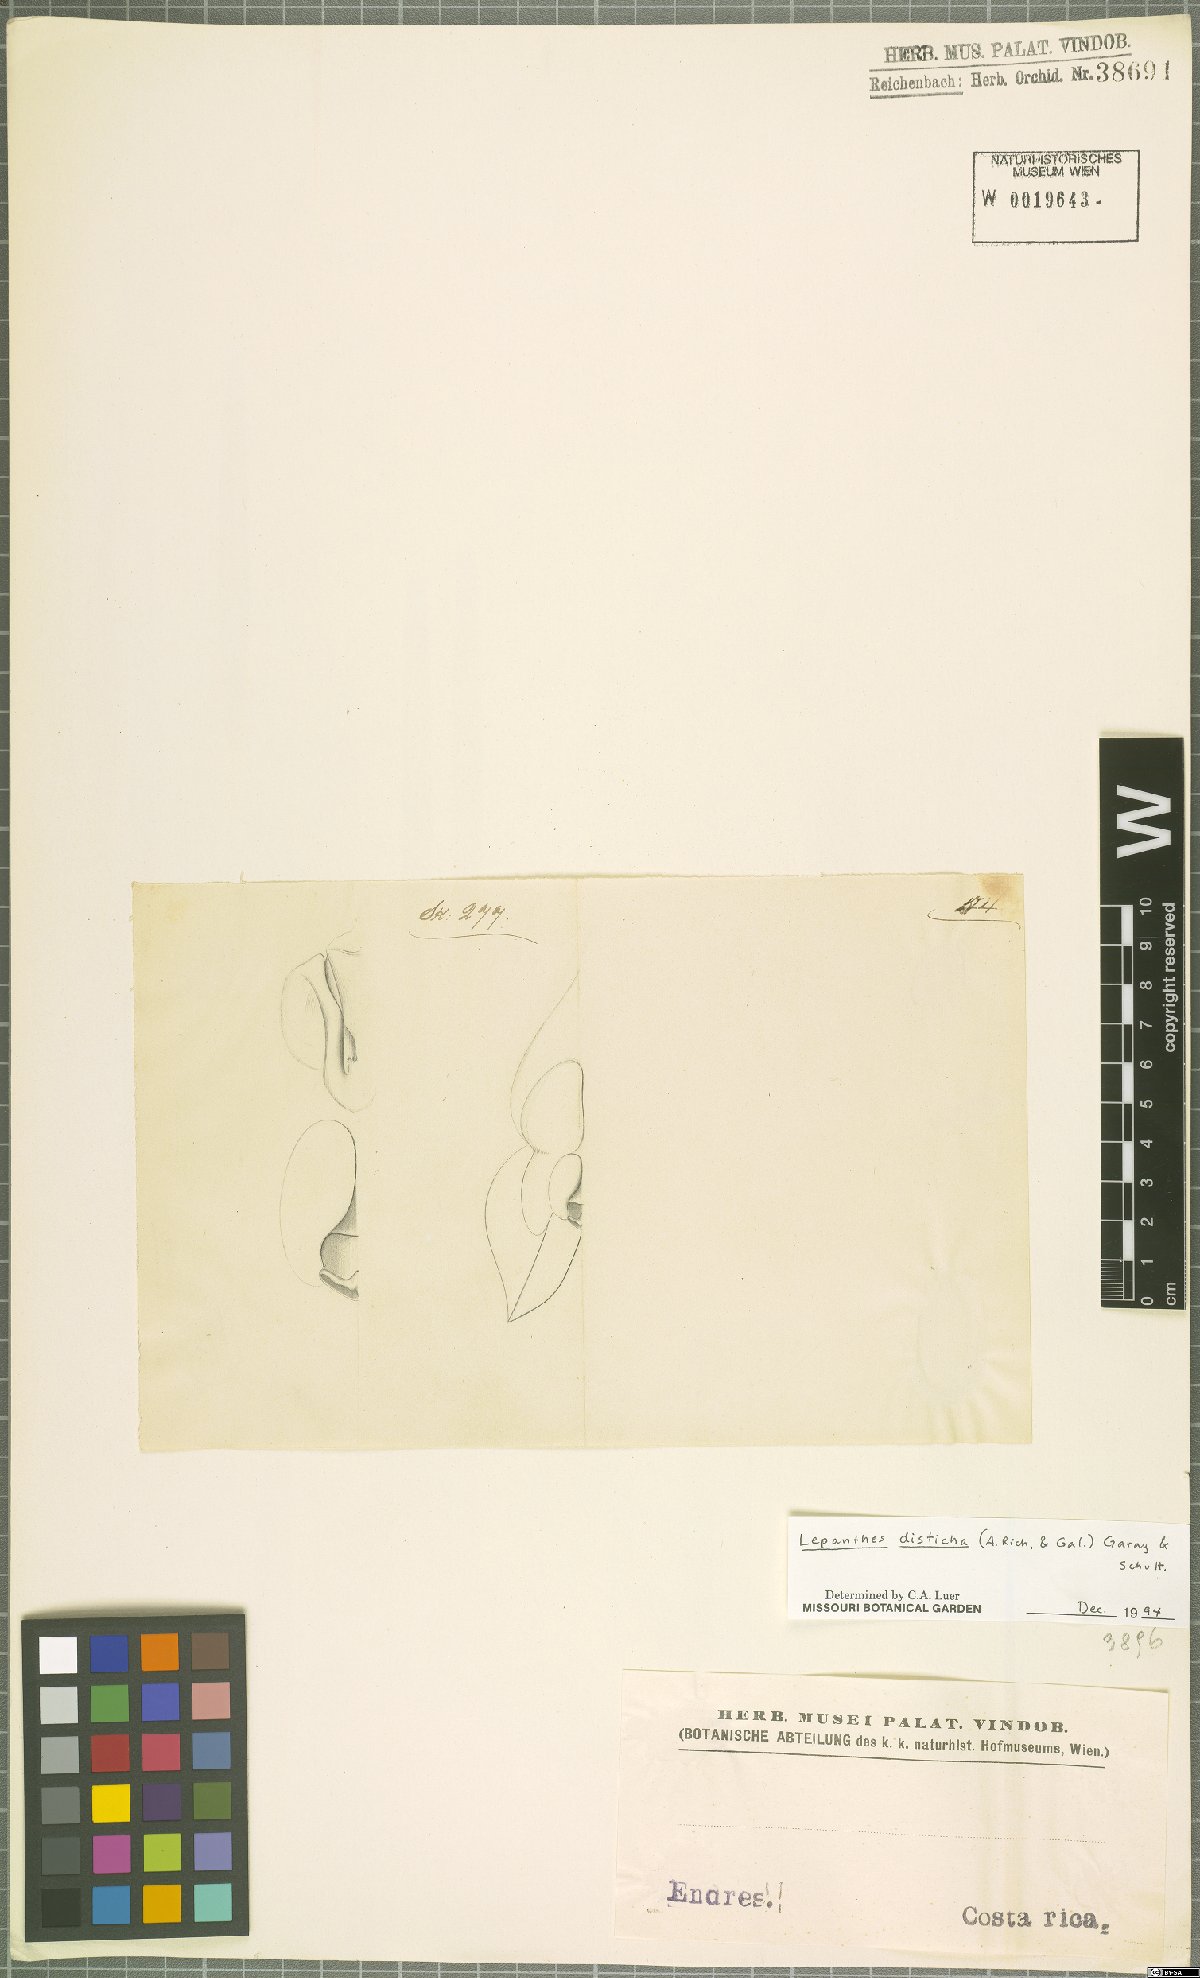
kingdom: Plantae
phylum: Tracheophyta
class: Liliopsida
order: Asparagales
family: Orchidaceae
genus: Lepanthes
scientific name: Lepanthes disticha
